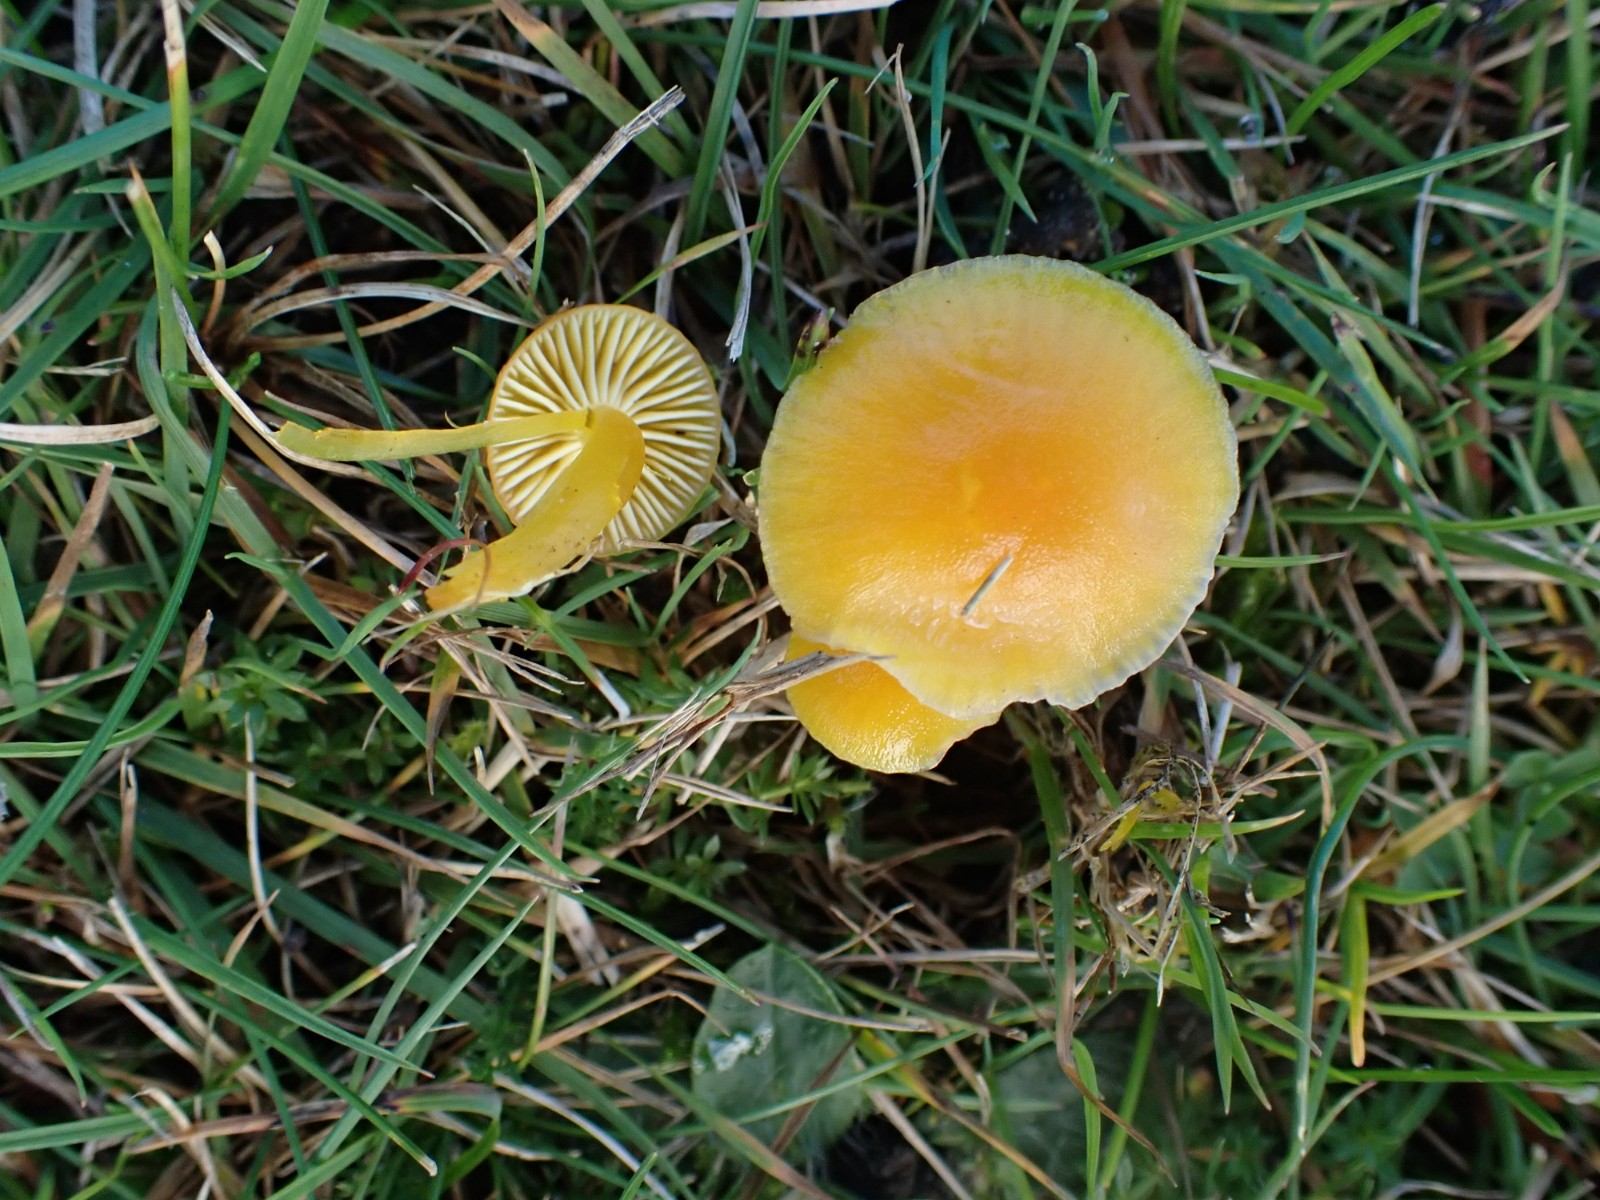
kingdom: Fungi
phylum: Basidiomycota
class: Agaricomycetes
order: Agaricales
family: Hygrophoraceae
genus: Hygrocybe
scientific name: Hygrocybe ceracea
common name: voksgul vokshat
